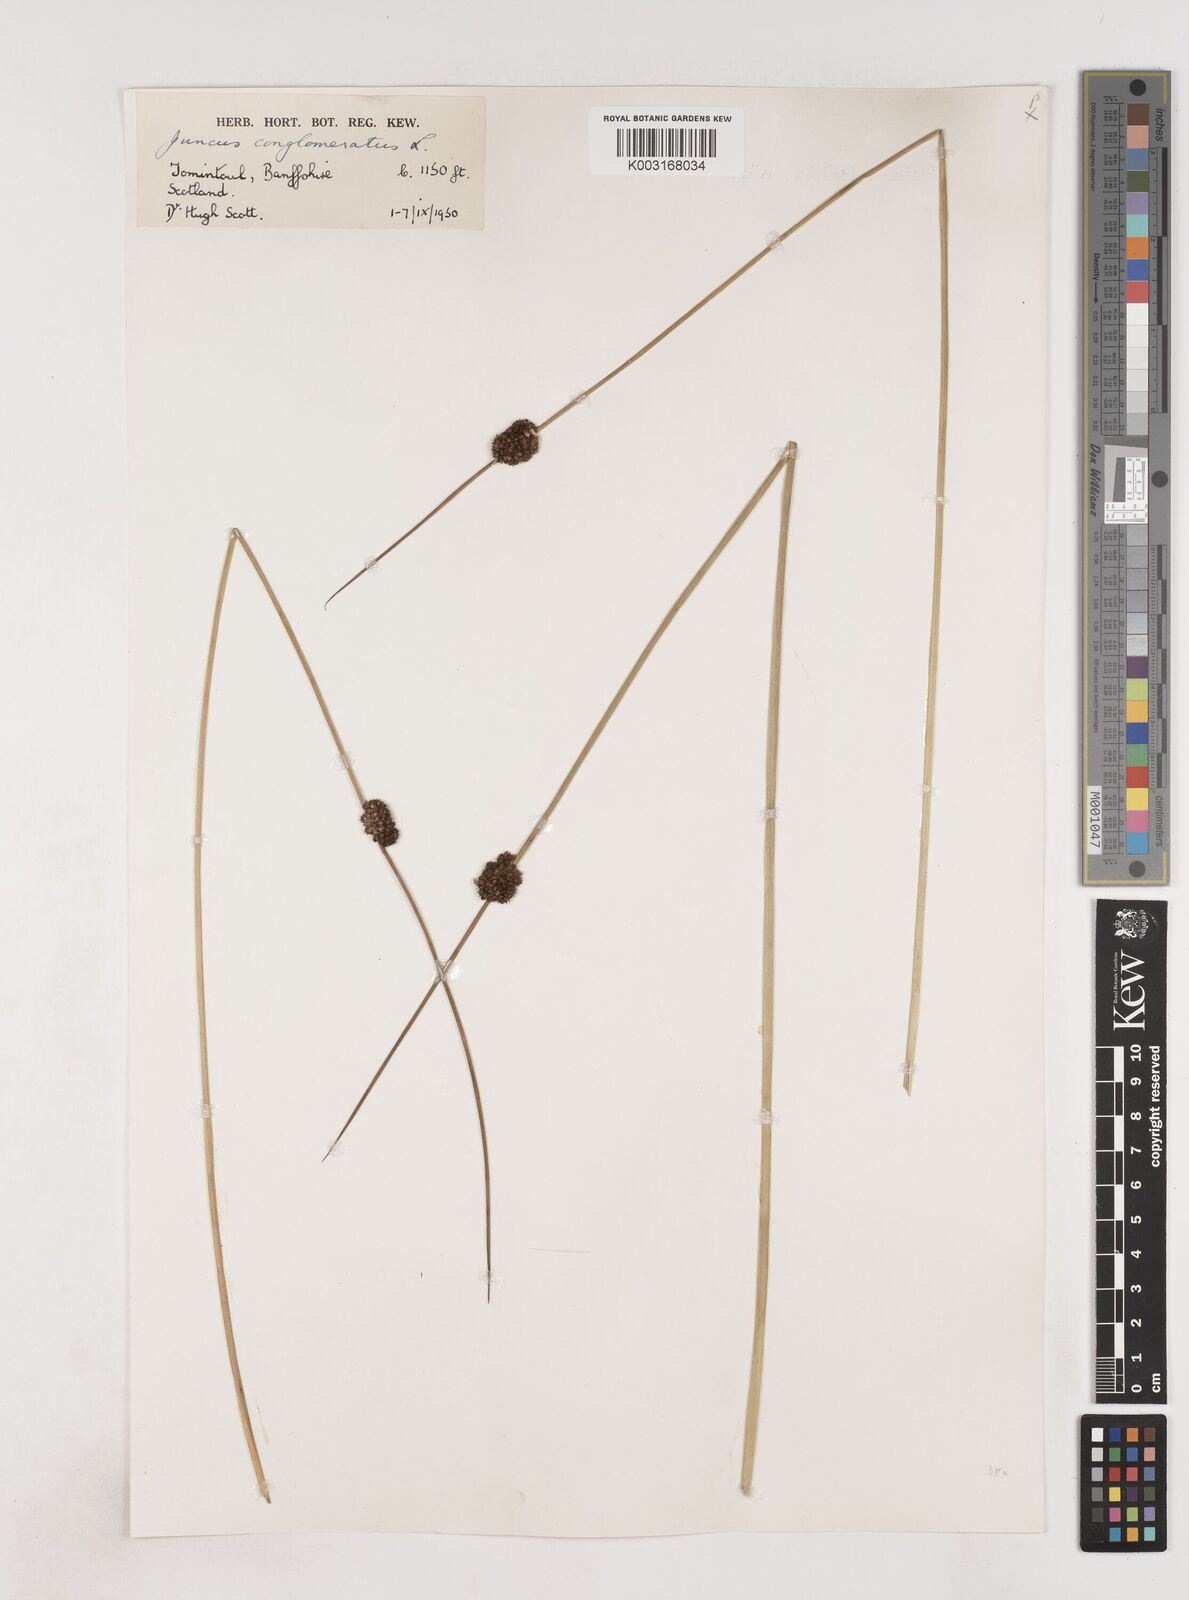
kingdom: Plantae
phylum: Tracheophyta
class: Liliopsida
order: Poales
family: Juncaceae
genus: Juncus
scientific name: Juncus conglomeratus
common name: Compact rush
